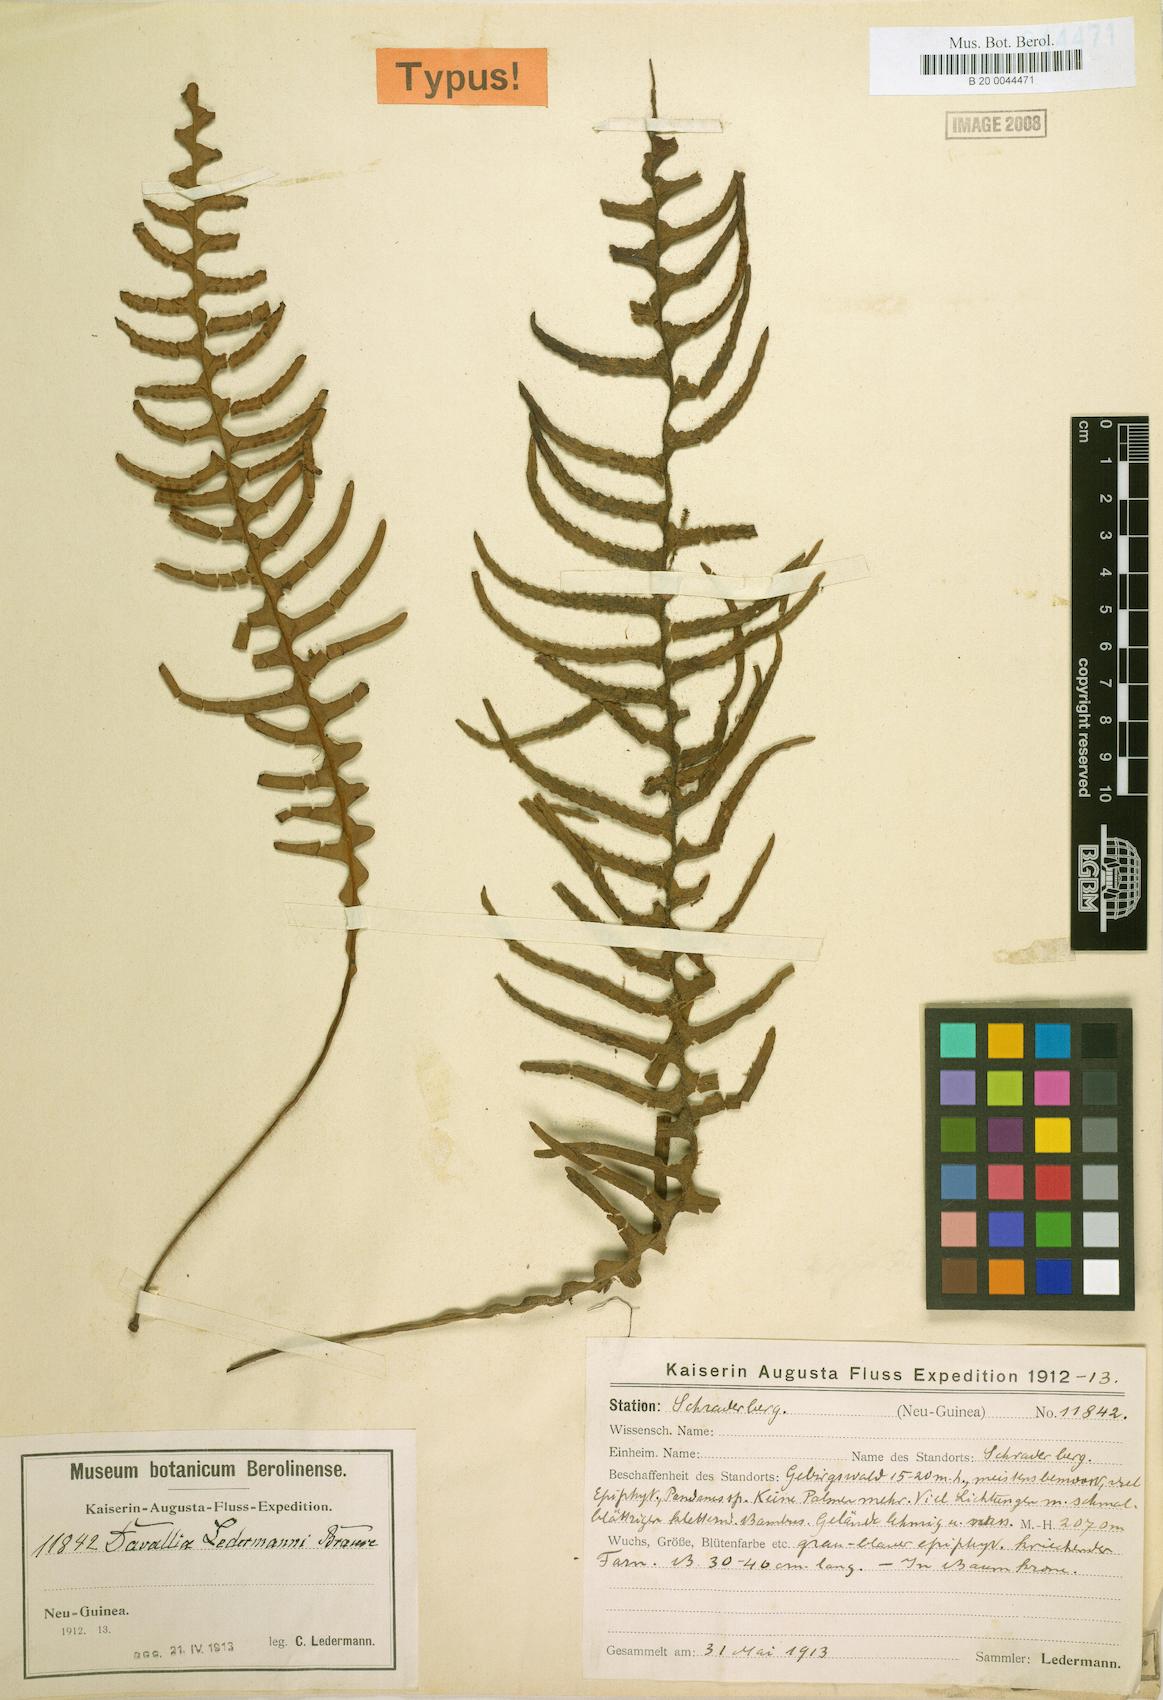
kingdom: Plantae
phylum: Tracheophyta
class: Polypodiopsida
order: Polypodiales
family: Polypodiaceae
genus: Prosaptia
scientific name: Prosaptia ledermannii
